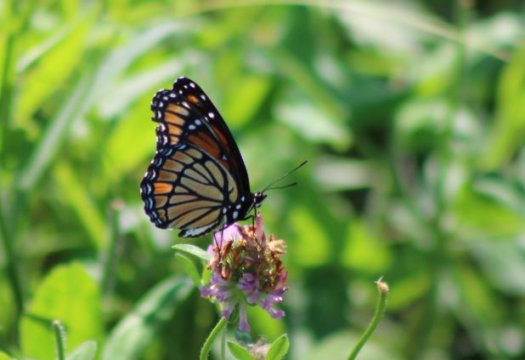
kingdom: Animalia
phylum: Arthropoda
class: Insecta
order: Lepidoptera
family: Nymphalidae
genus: Limenitis
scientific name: Limenitis archippus
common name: Viceroy
